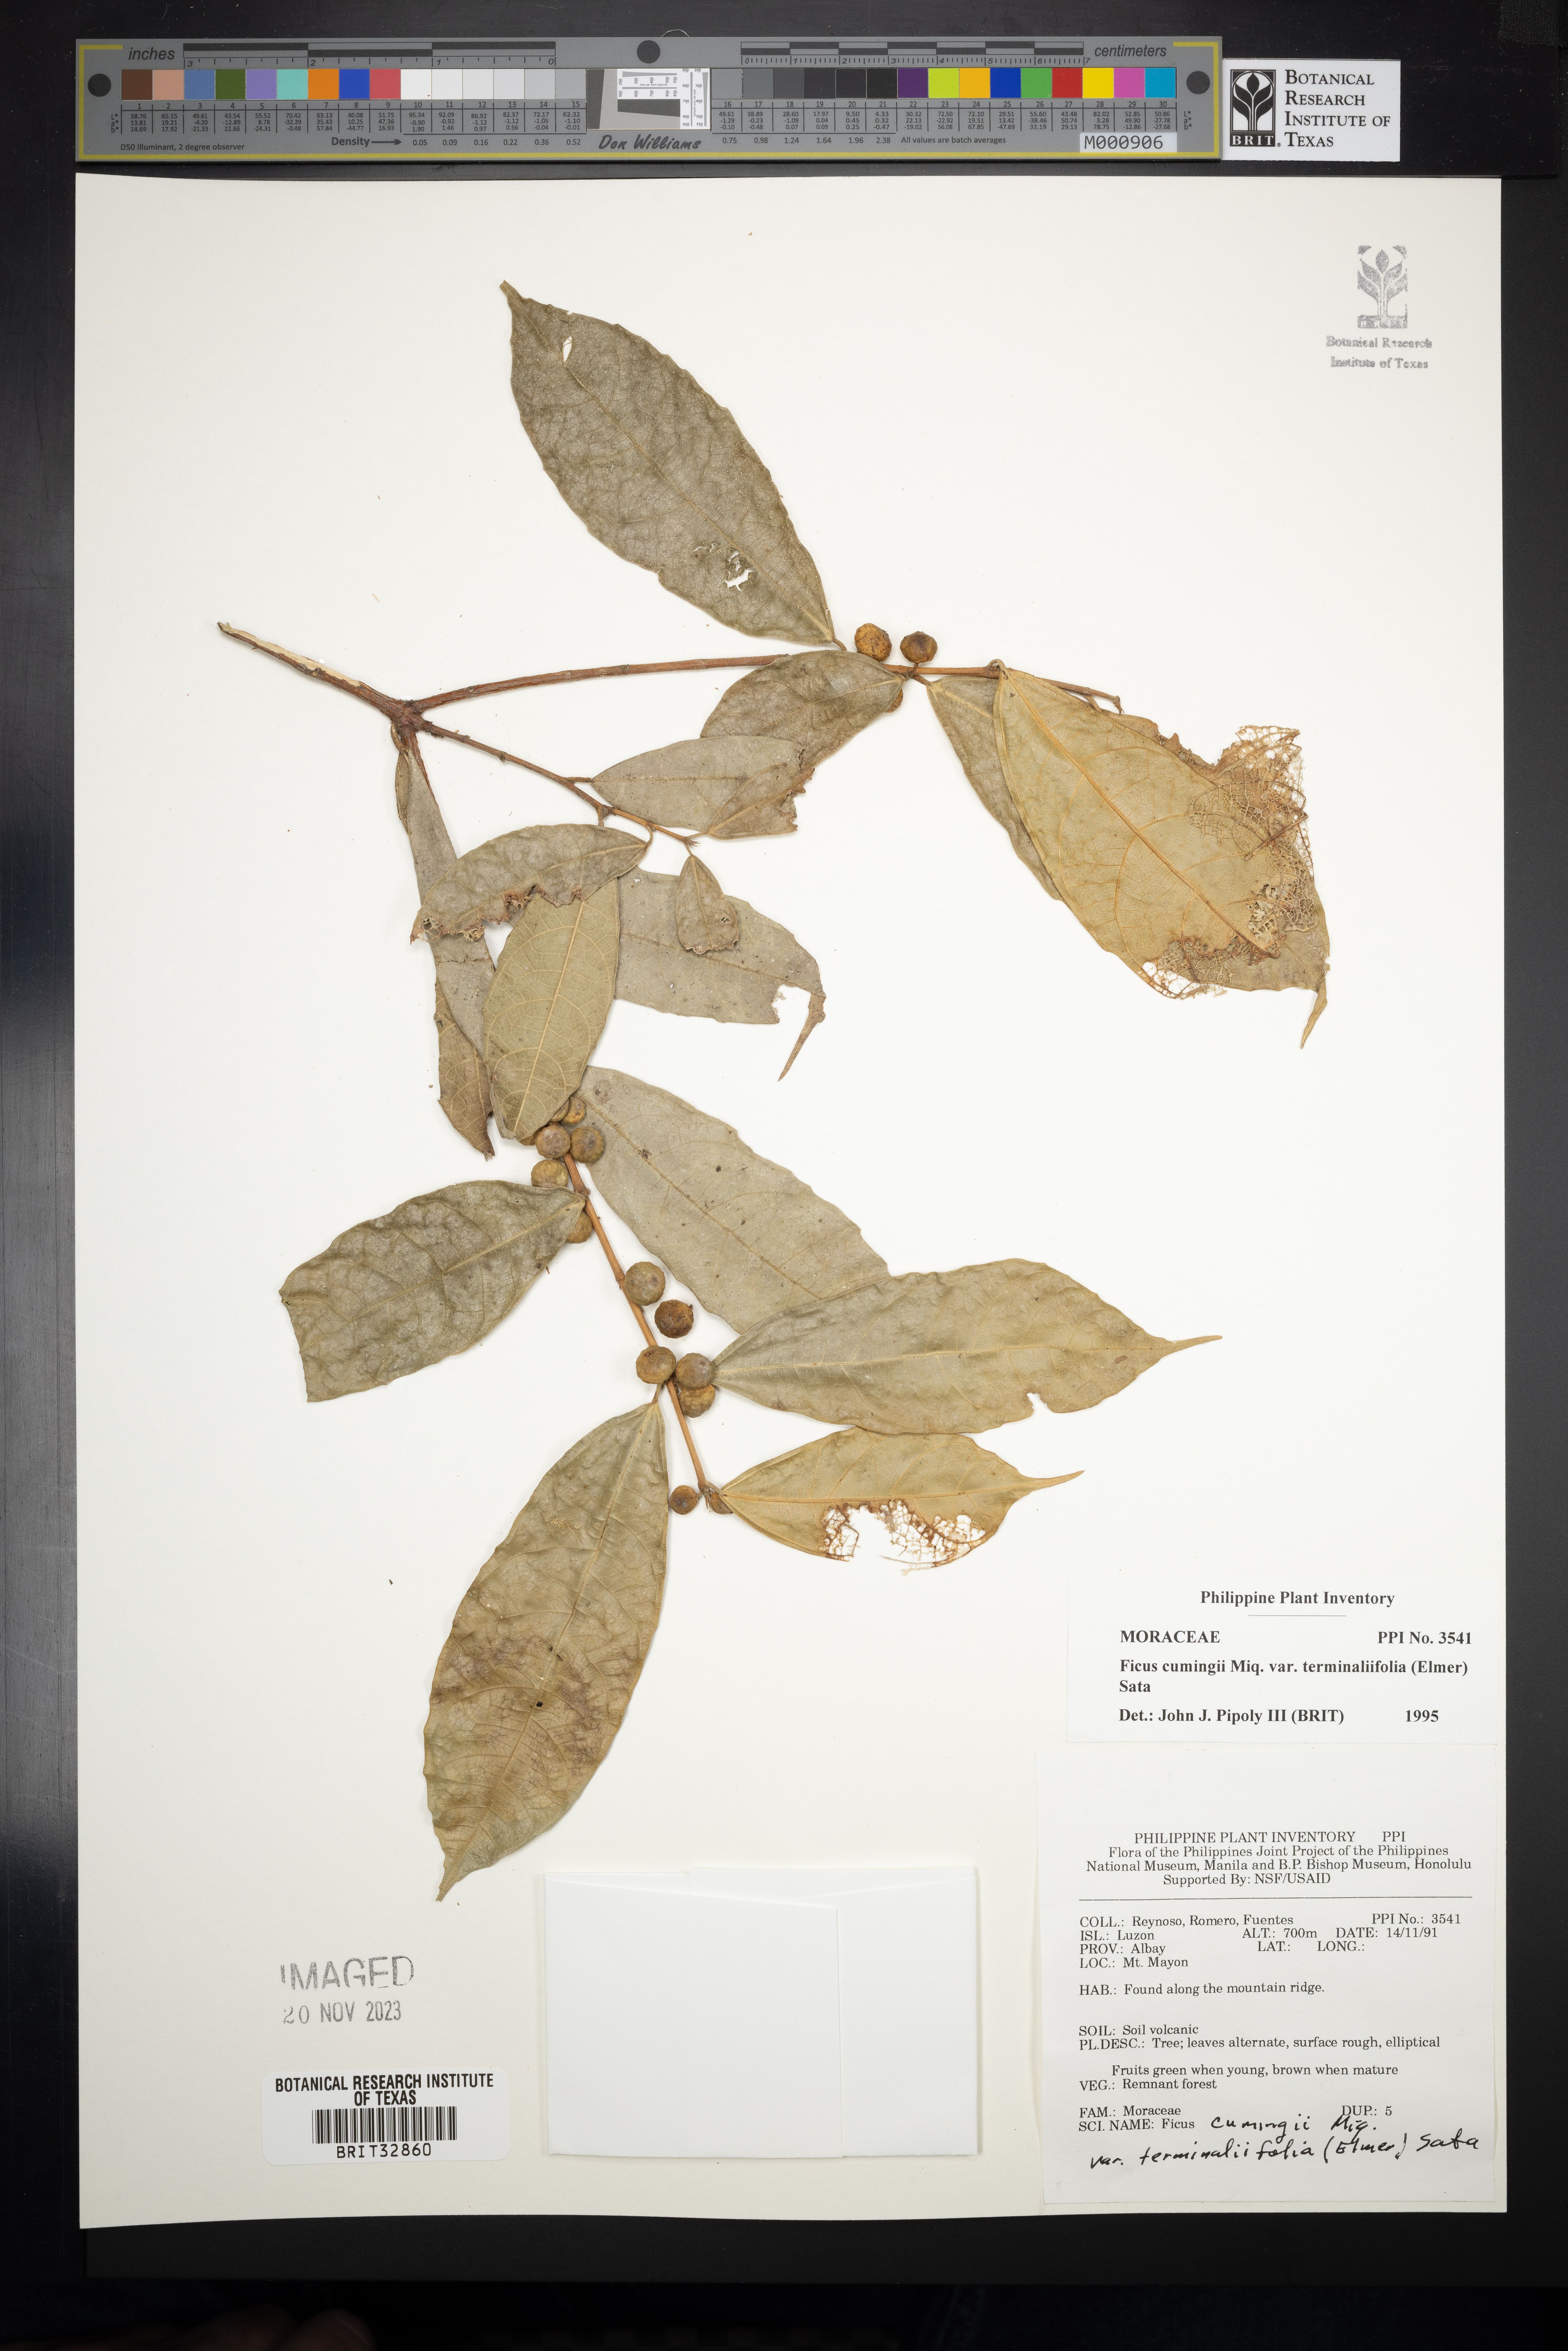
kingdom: Plantae
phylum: Tracheophyta
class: Magnoliopsida
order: Rosales
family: Moraceae
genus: Ficus
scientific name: Ficus cumingii
